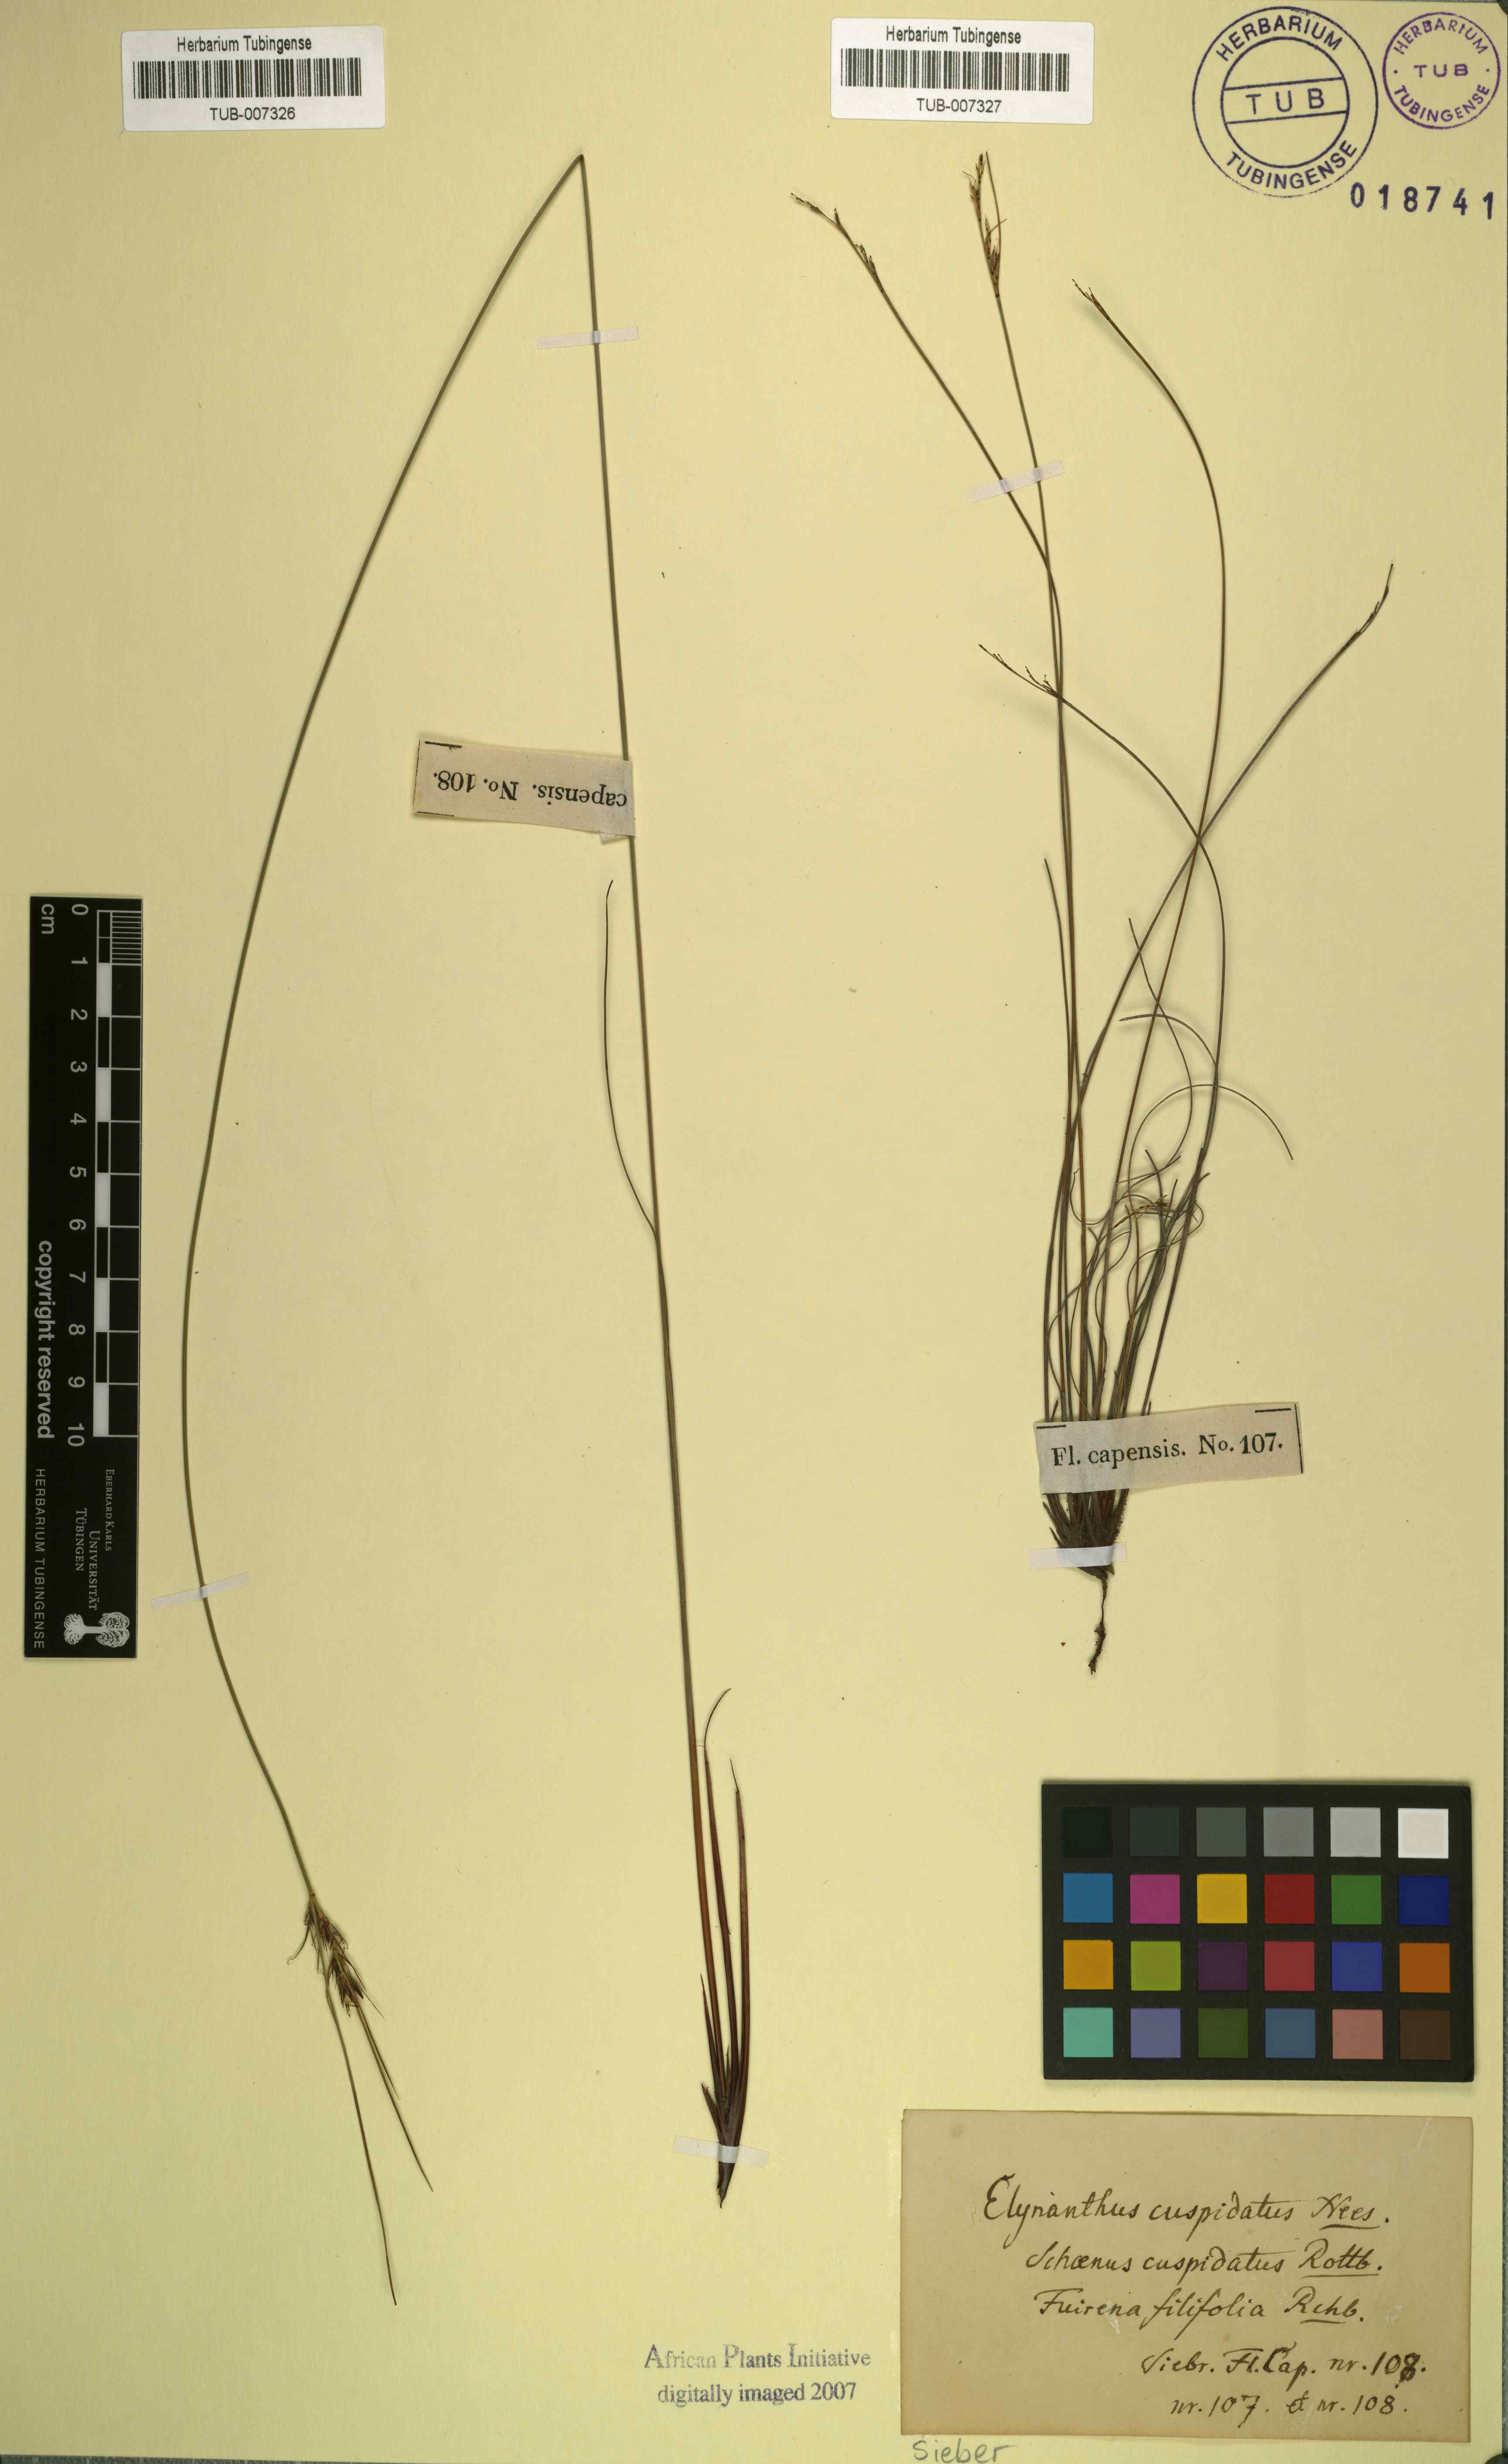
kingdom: Plantae
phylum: Tracheophyta
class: Liliopsida
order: Poales
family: Cyperaceae
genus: Schoenus
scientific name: Schoenus cuspidatus
